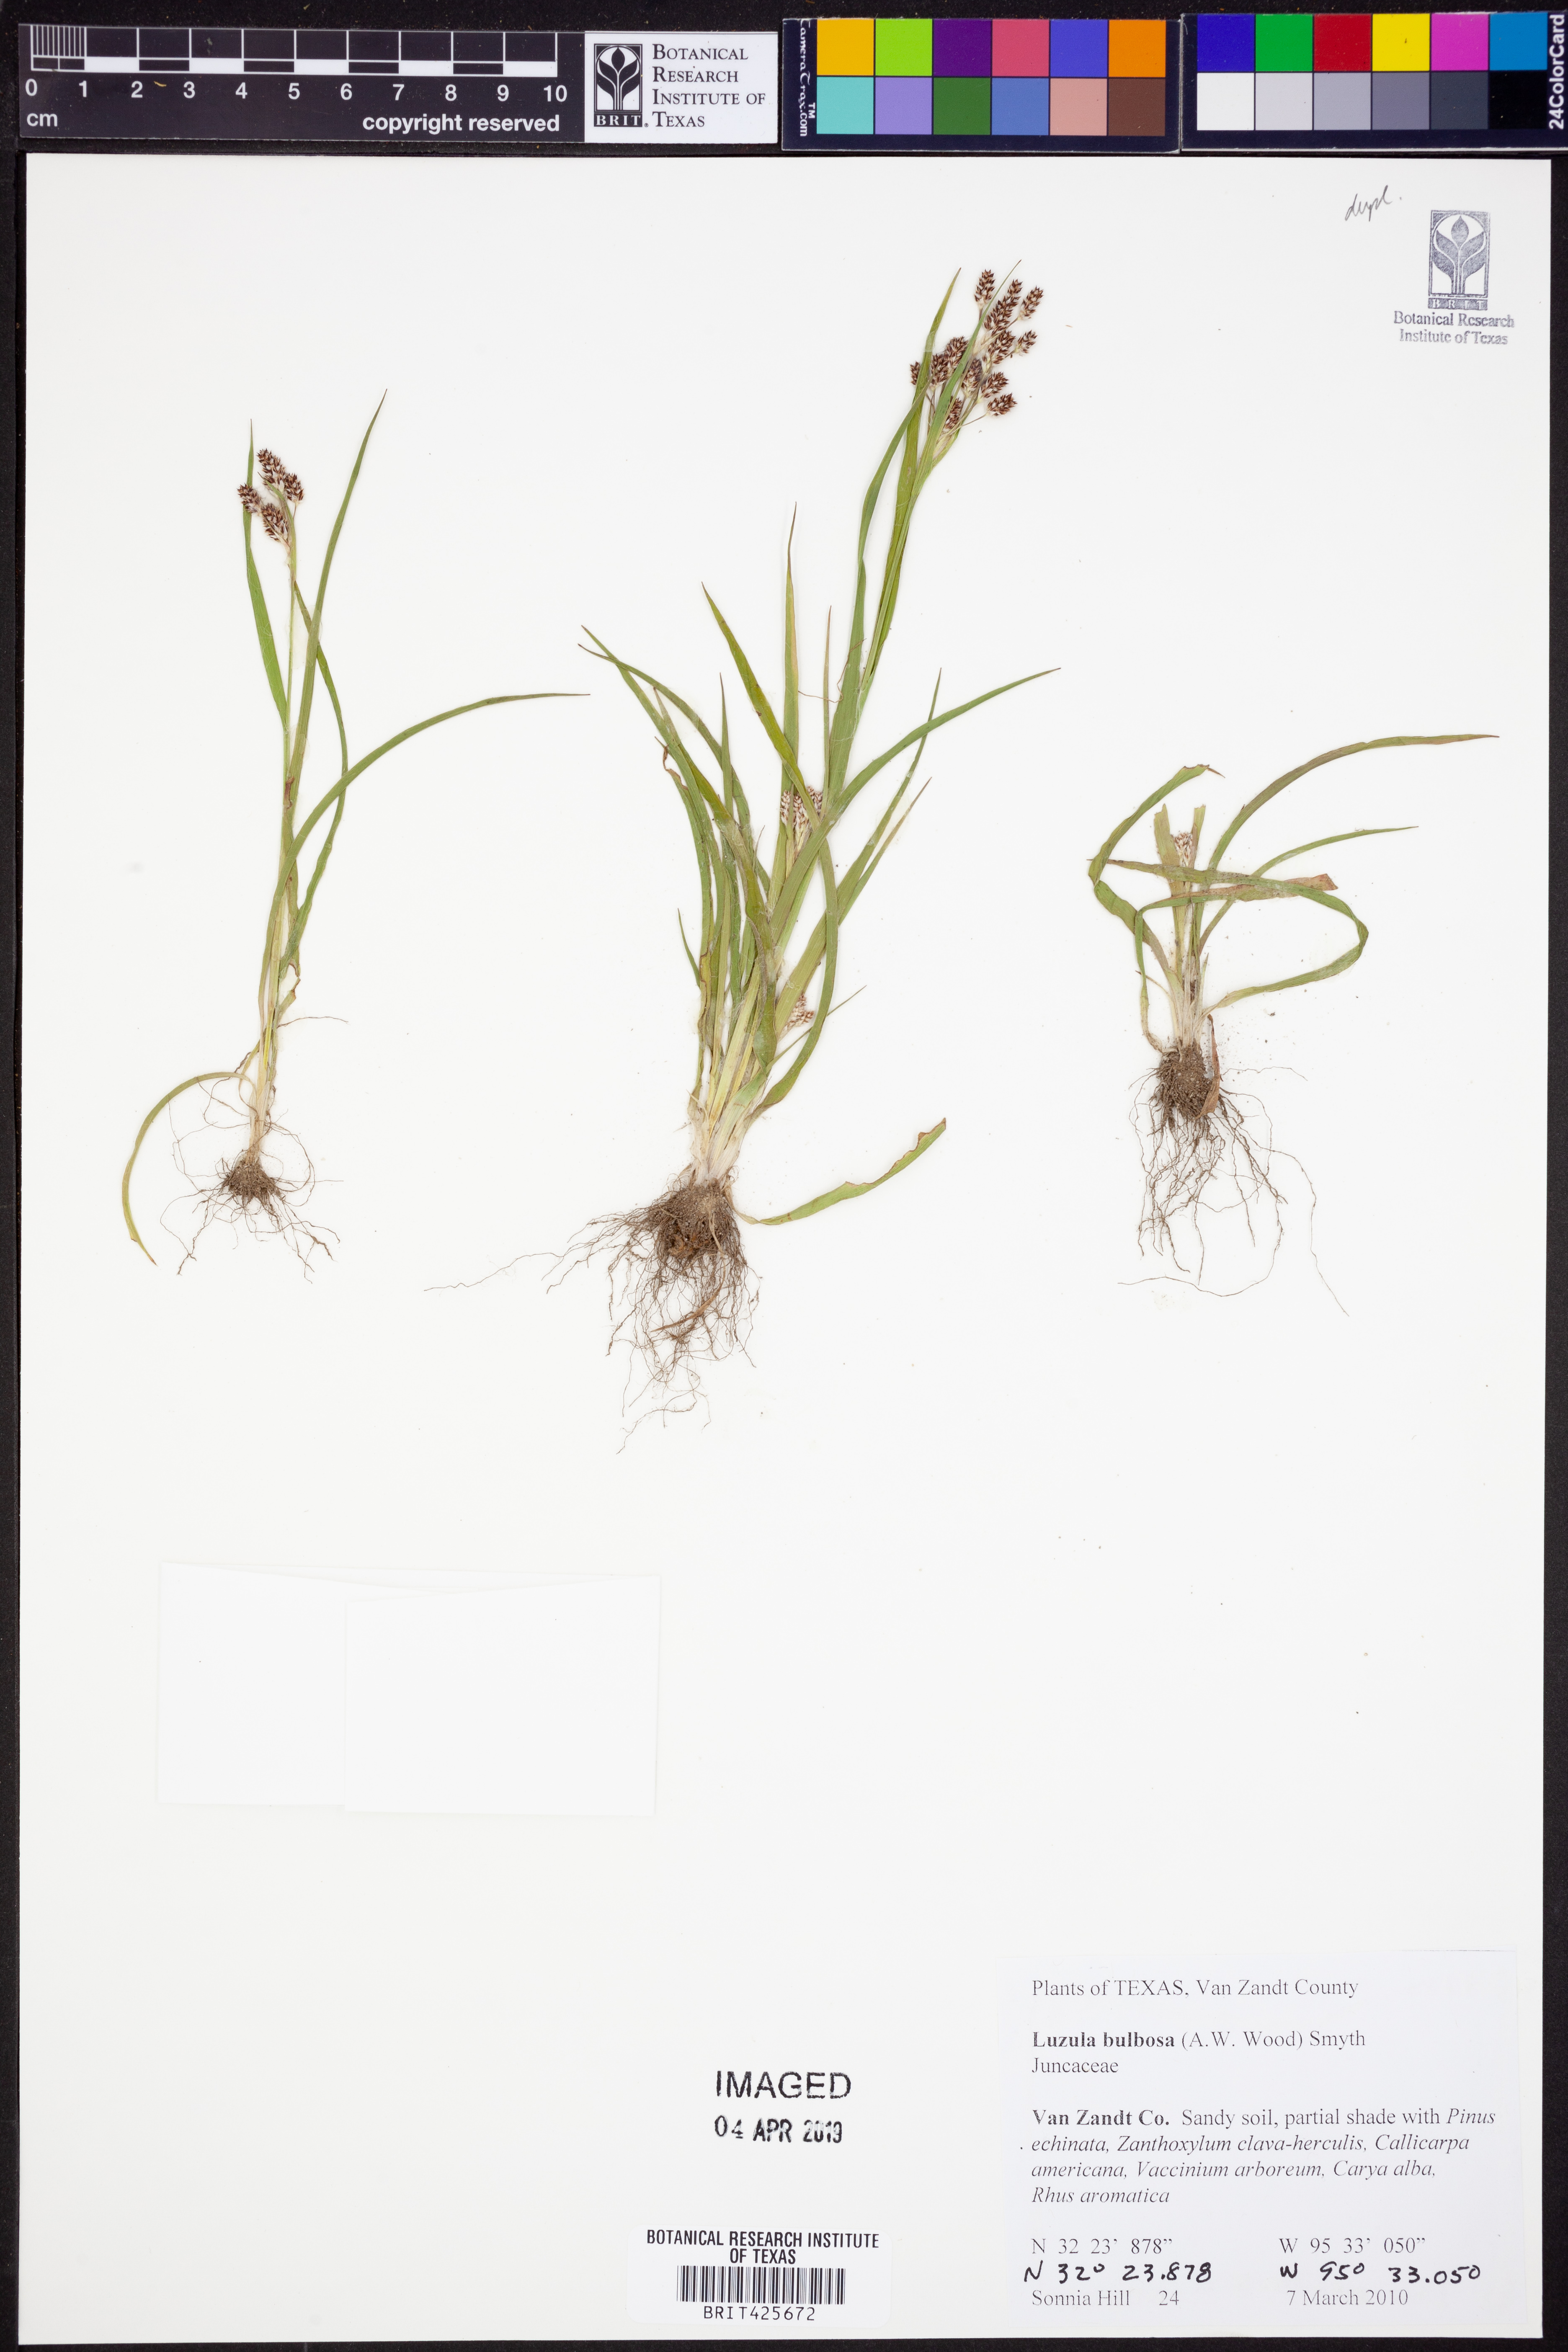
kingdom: Plantae
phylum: Tracheophyta
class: Liliopsida
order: Poales
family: Juncaceae
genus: Luzula
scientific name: Luzula bulbosa
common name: Bulbous woodrush
